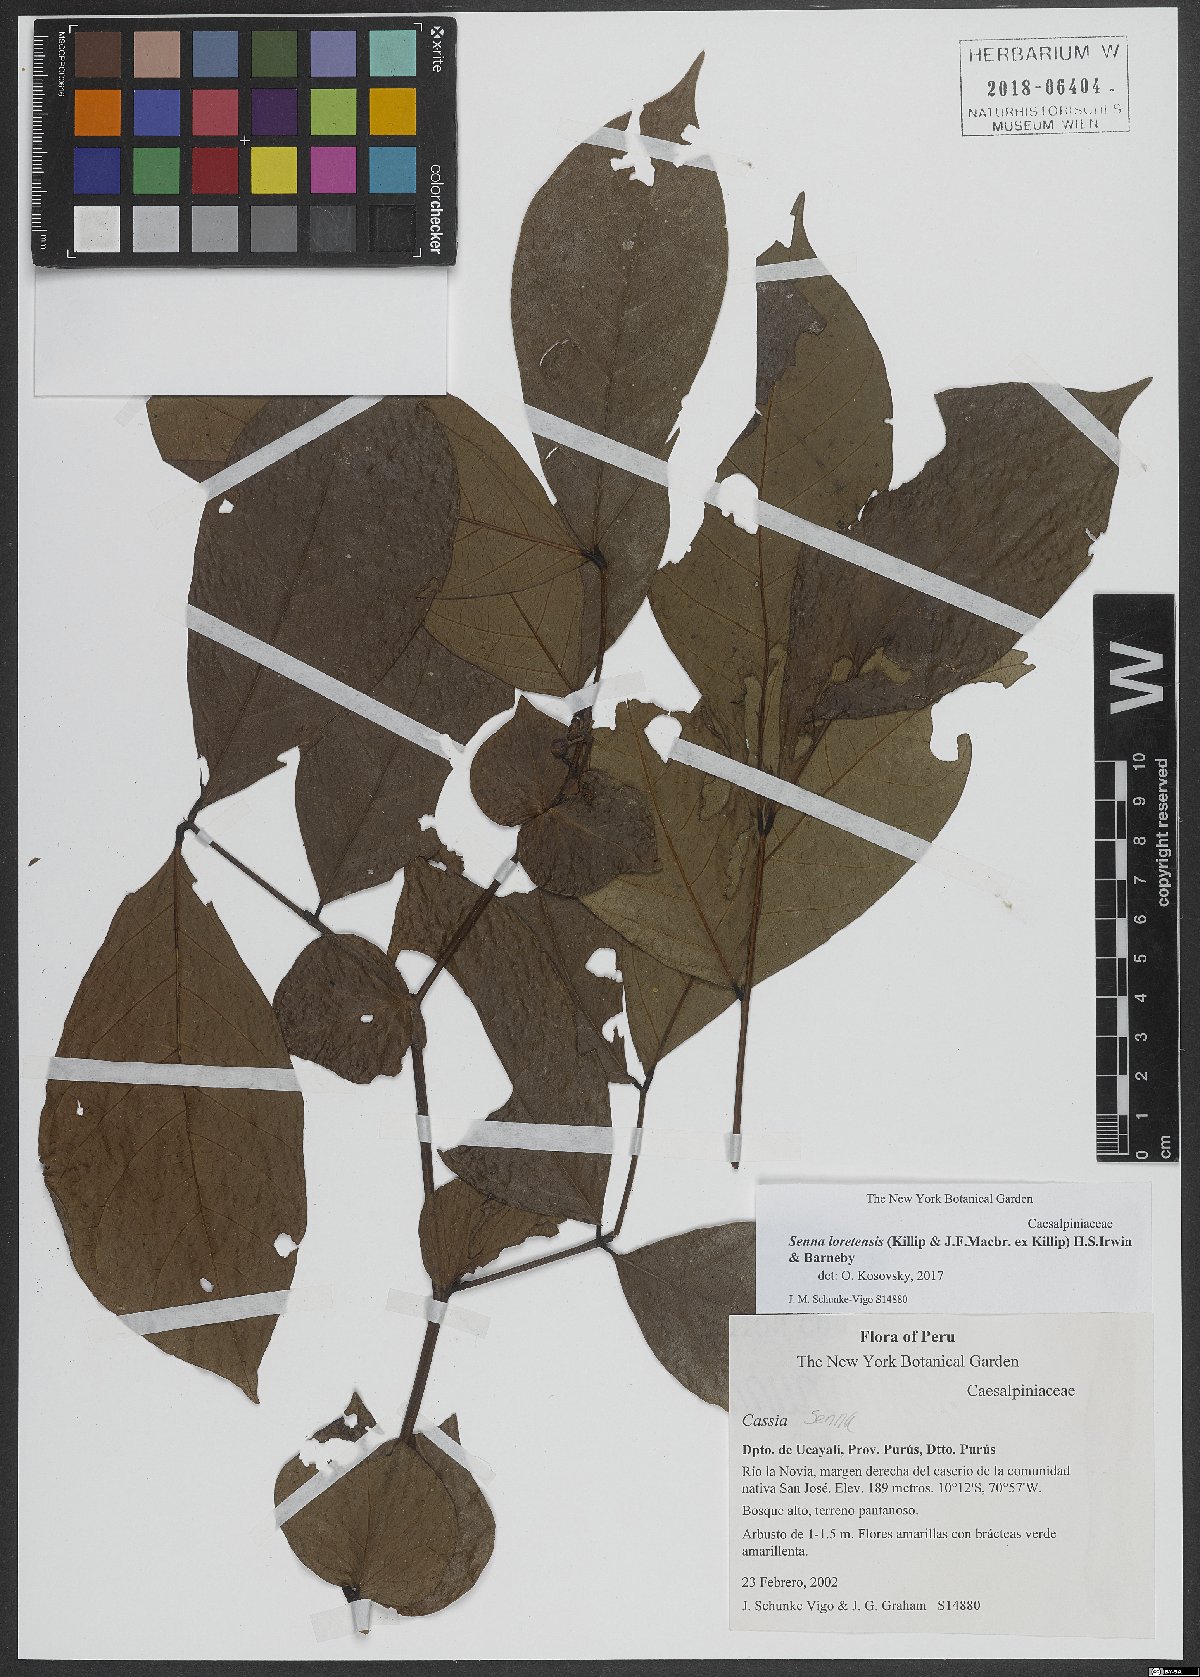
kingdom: Plantae
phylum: Tracheophyta
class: Magnoliopsida
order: Fabales
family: Fabaceae
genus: Senna
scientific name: Senna loretensis
